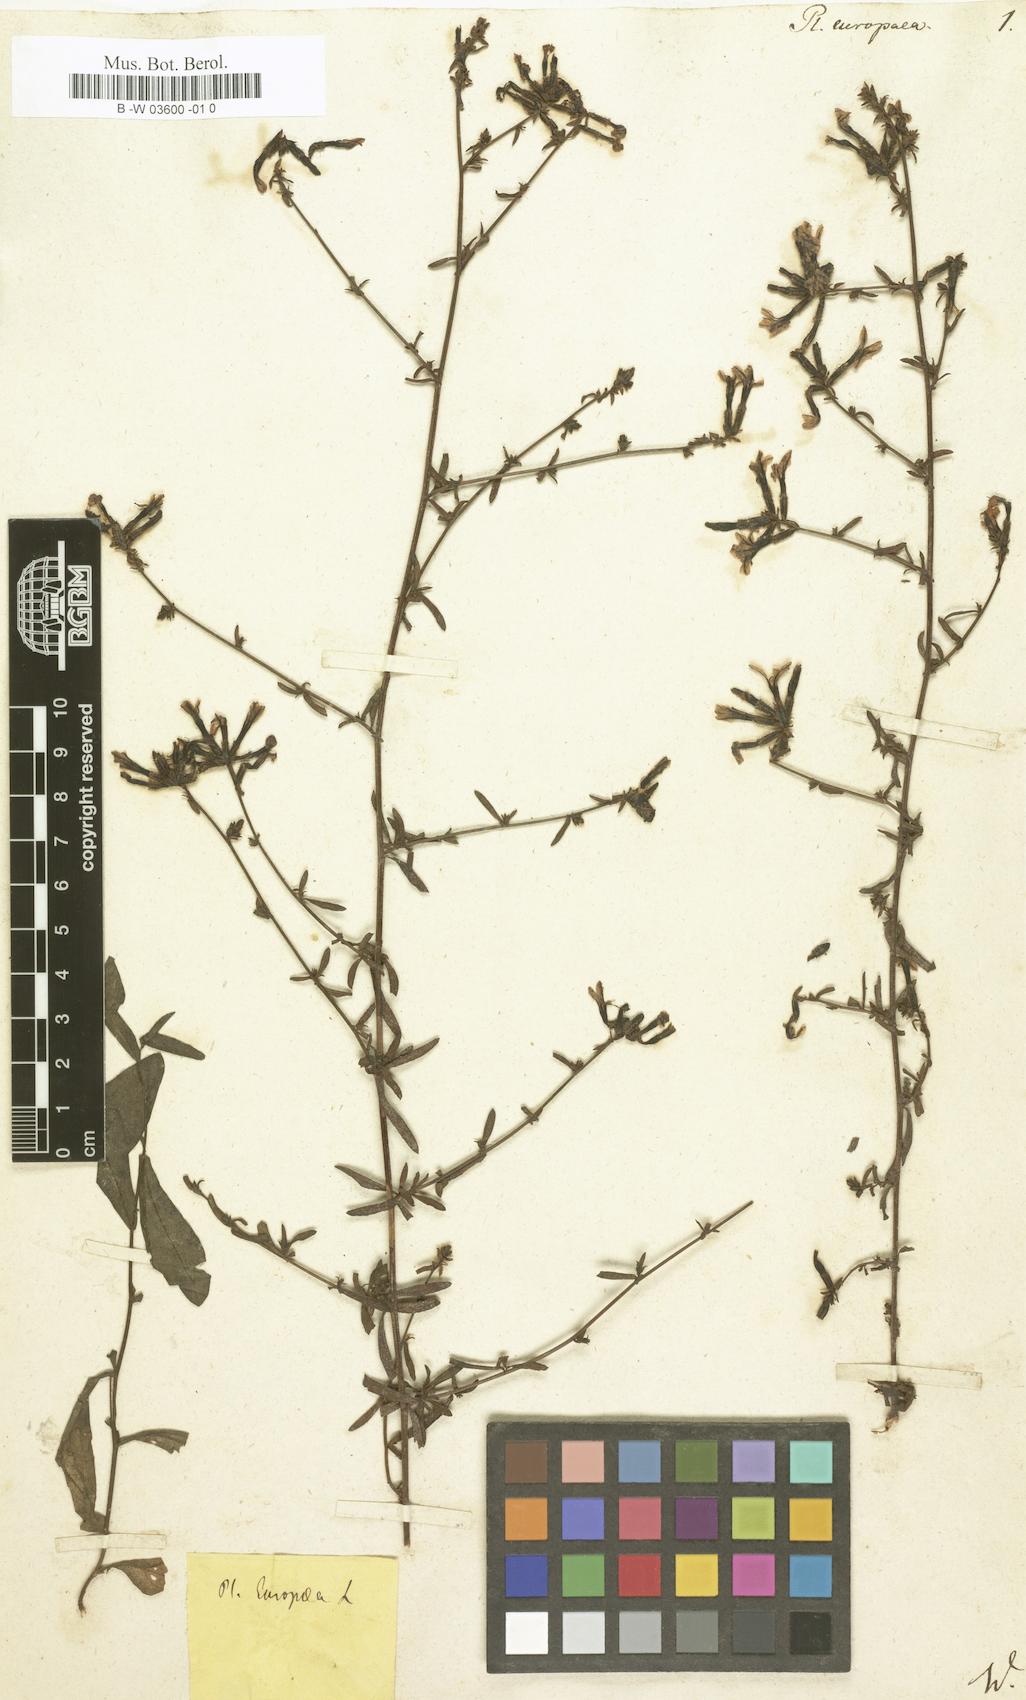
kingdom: Plantae
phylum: Tracheophyta
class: Magnoliopsida
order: Caryophyllales
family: Plumbaginaceae
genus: Plumbago
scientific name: Plumbago europaea
